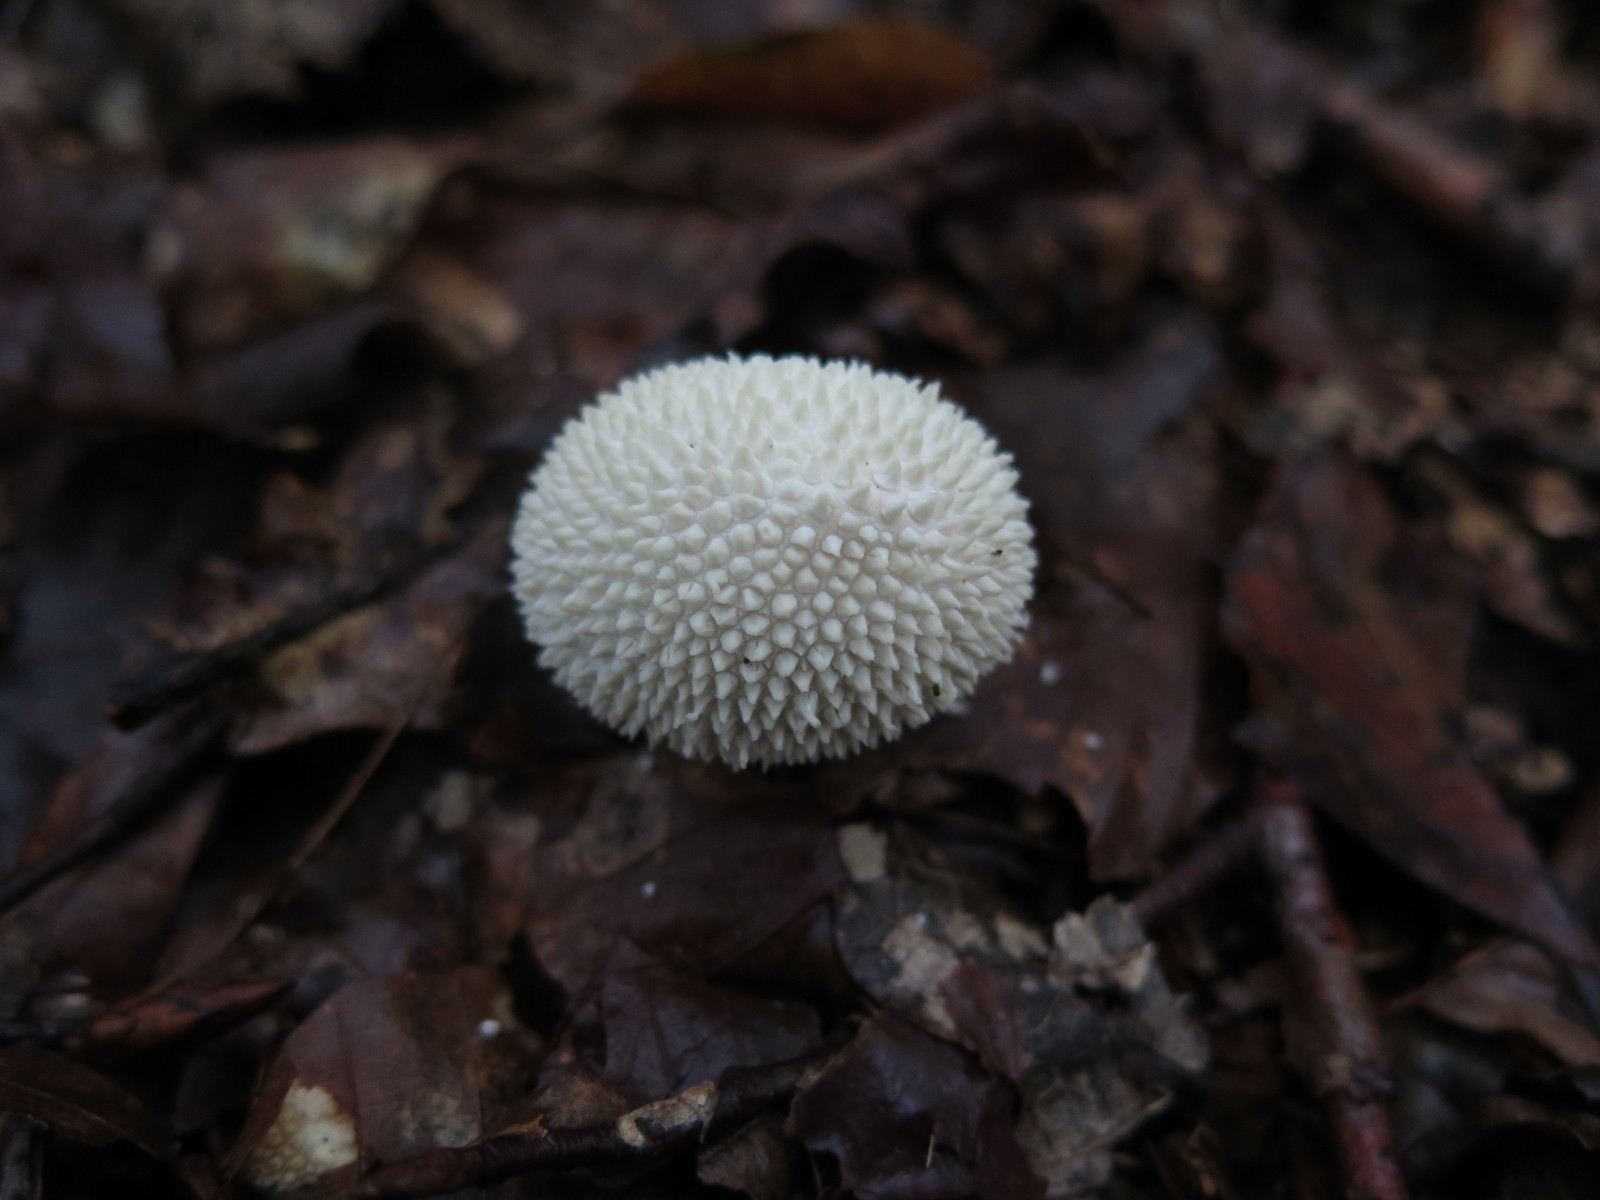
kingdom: Fungi
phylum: Basidiomycota
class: Agaricomycetes
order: Agaricales
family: Lycoperdaceae
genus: Lycoperdon
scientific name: Lycoperdon perlatum
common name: krystal-støvbold
